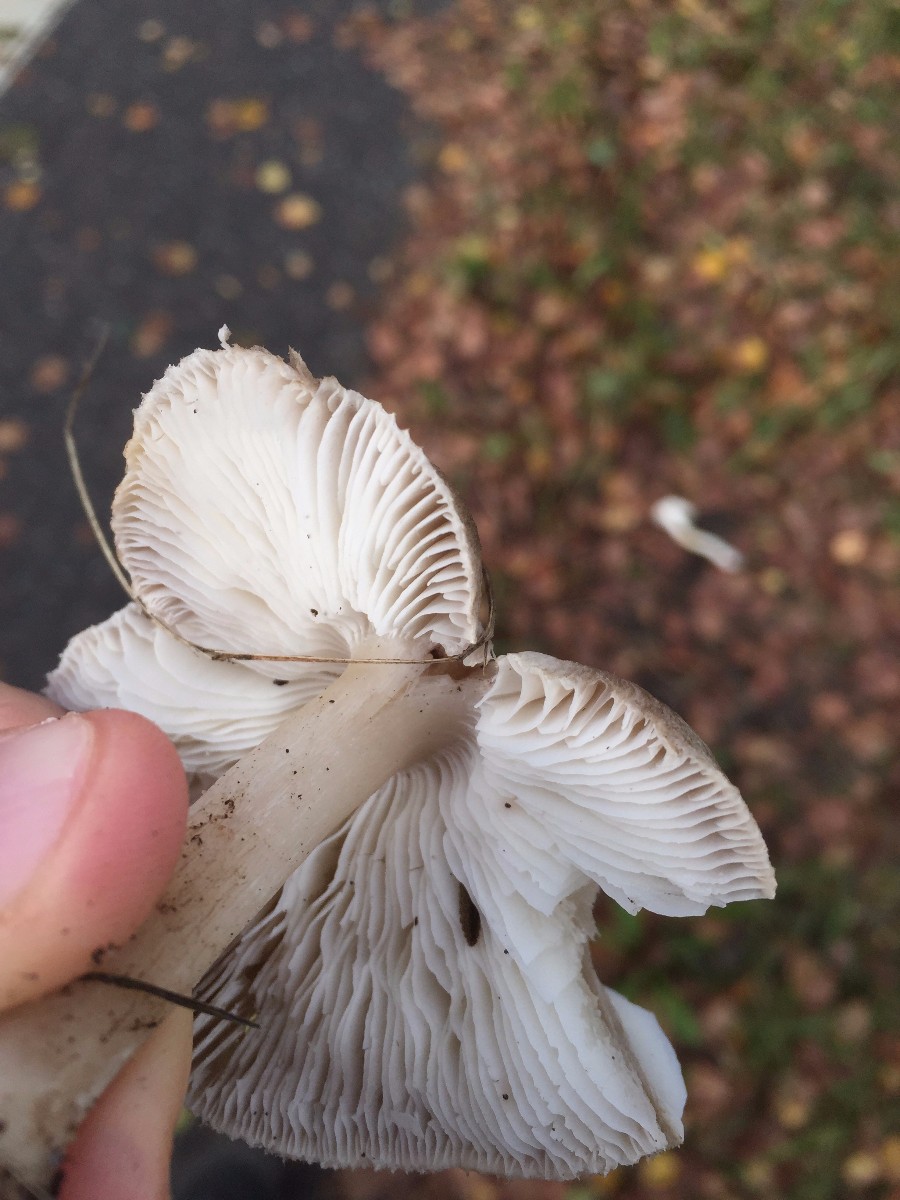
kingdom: Fungi
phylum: Basidiomycota
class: Agaricomycetes
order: Agaricales
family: Tricholomataceae
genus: Tricholoma
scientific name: Tricholoma scalpturatum
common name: gulplettet ridderhat
